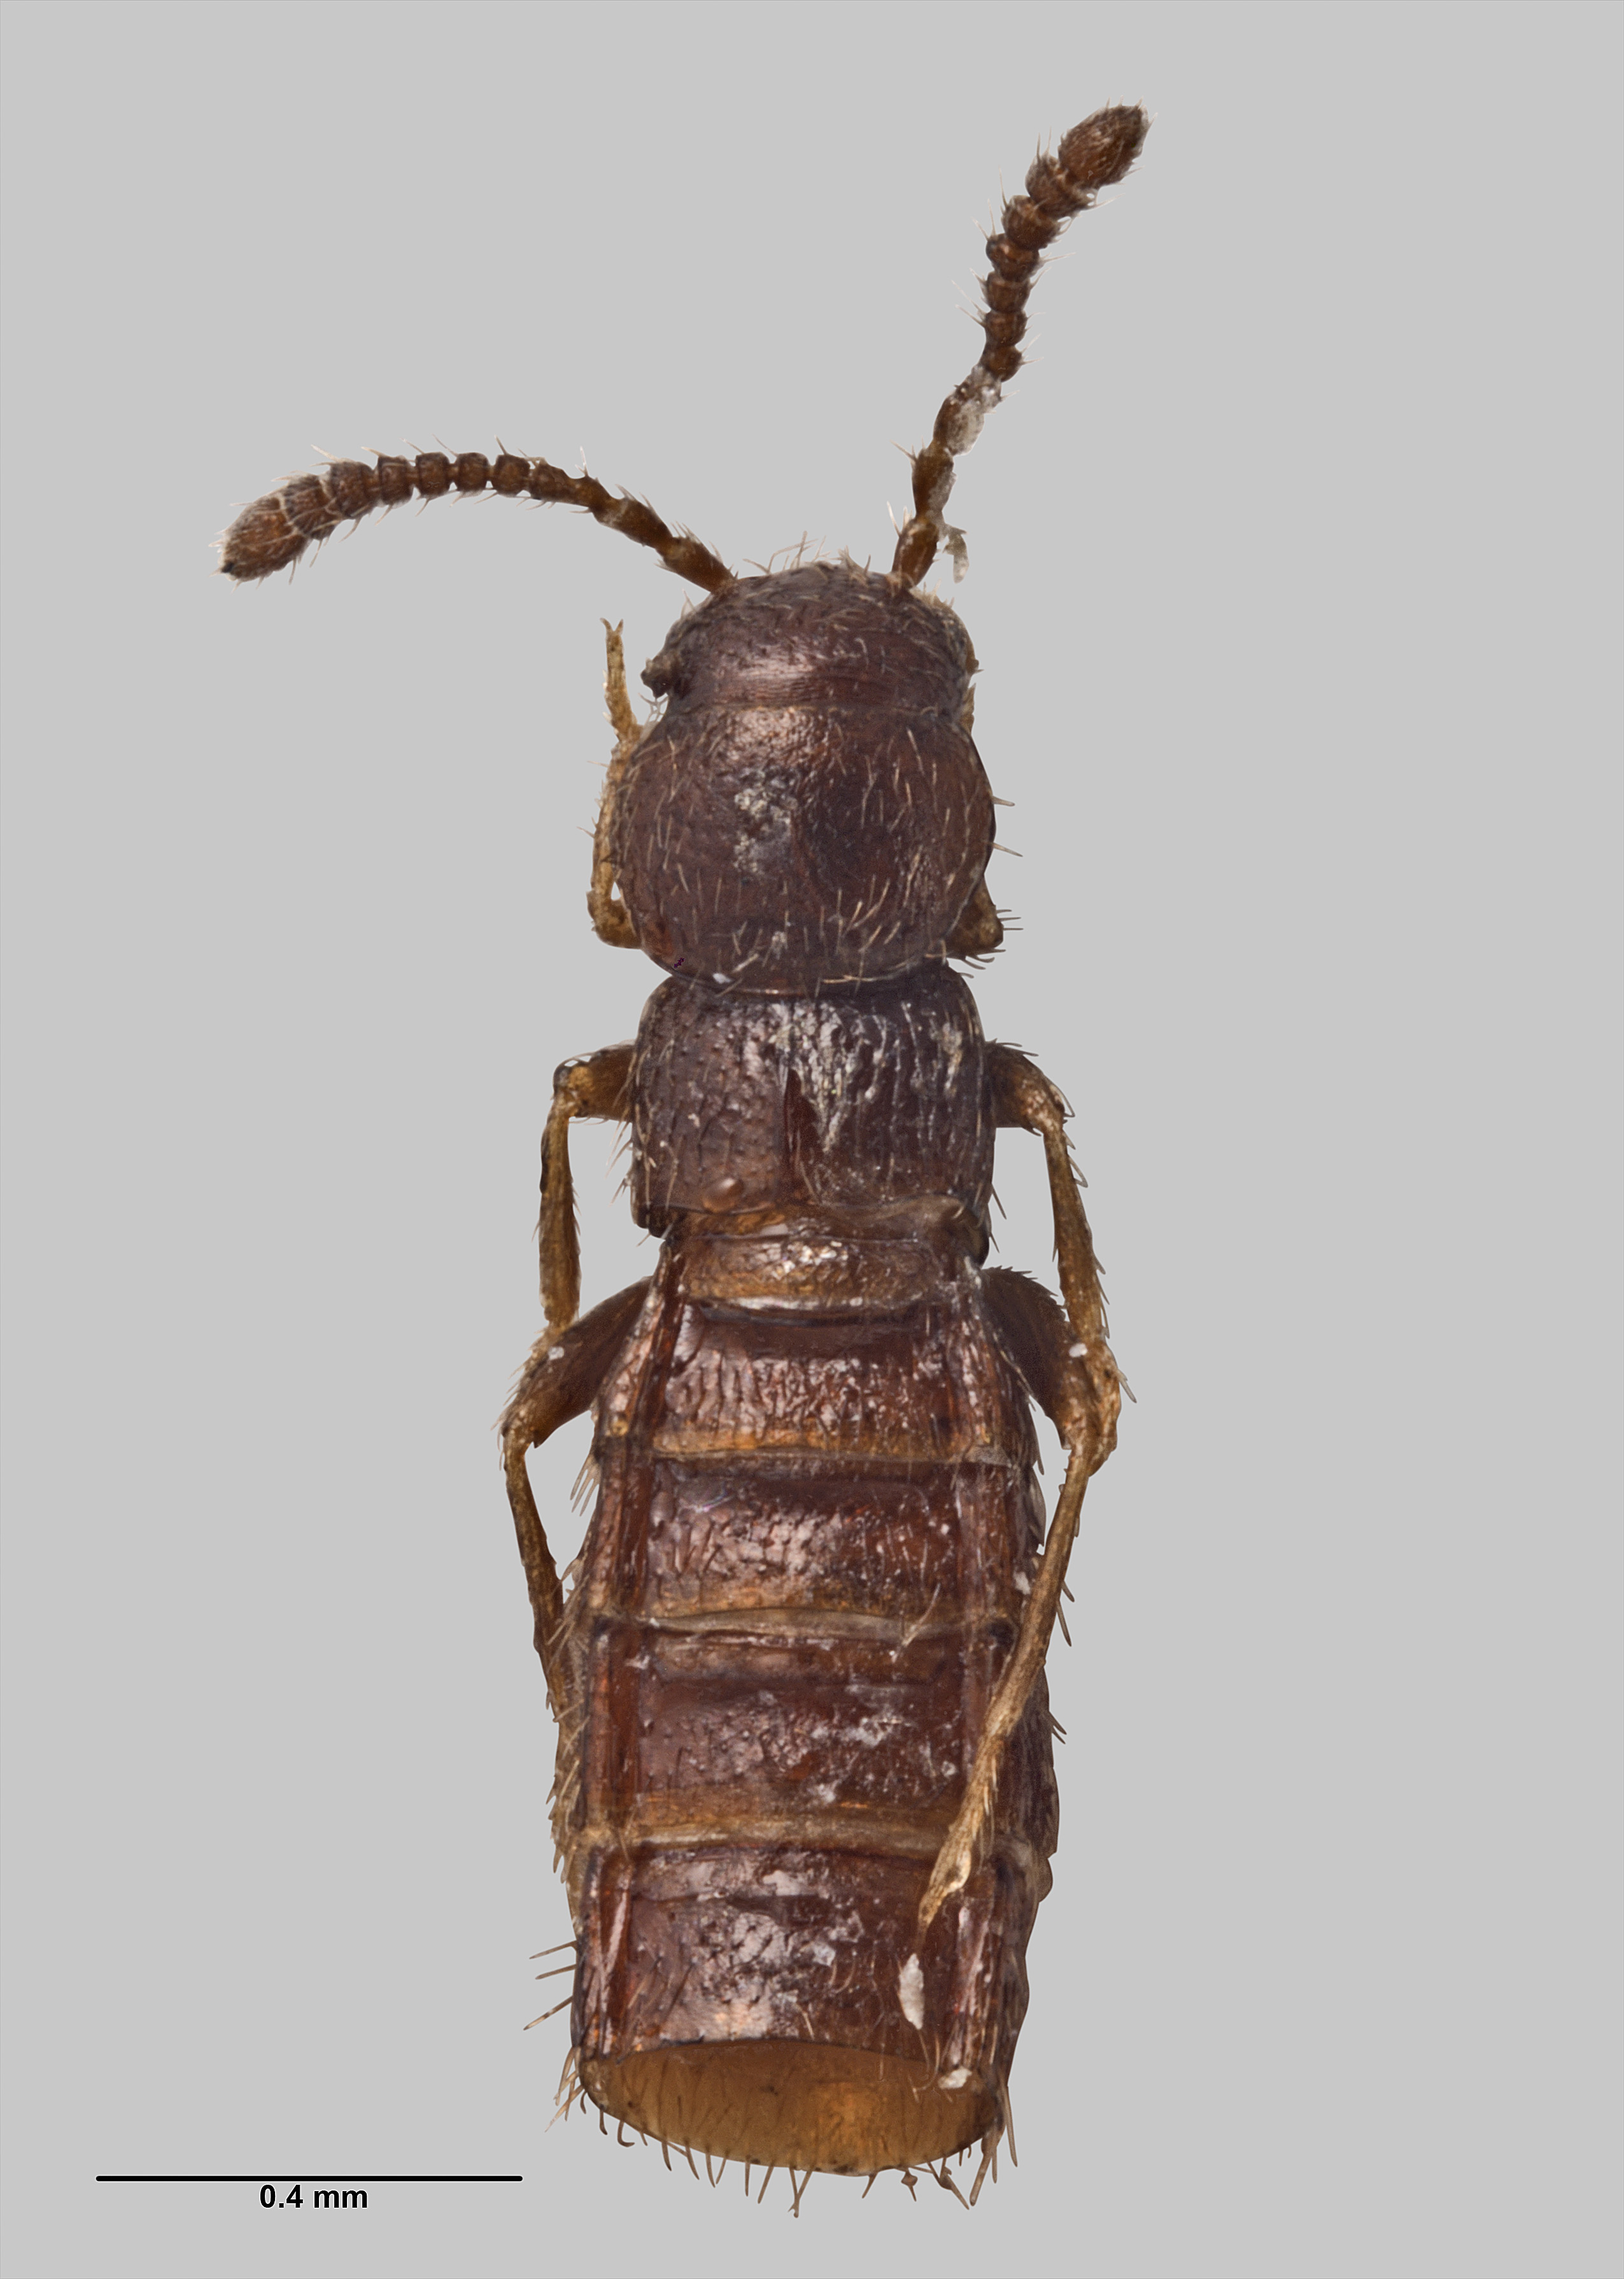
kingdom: Animalia
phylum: Arthropoda
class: Insecta
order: Coleoptera
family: Staphylinidae
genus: Pseudopisalia
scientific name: Pseudopisalia turbotti
